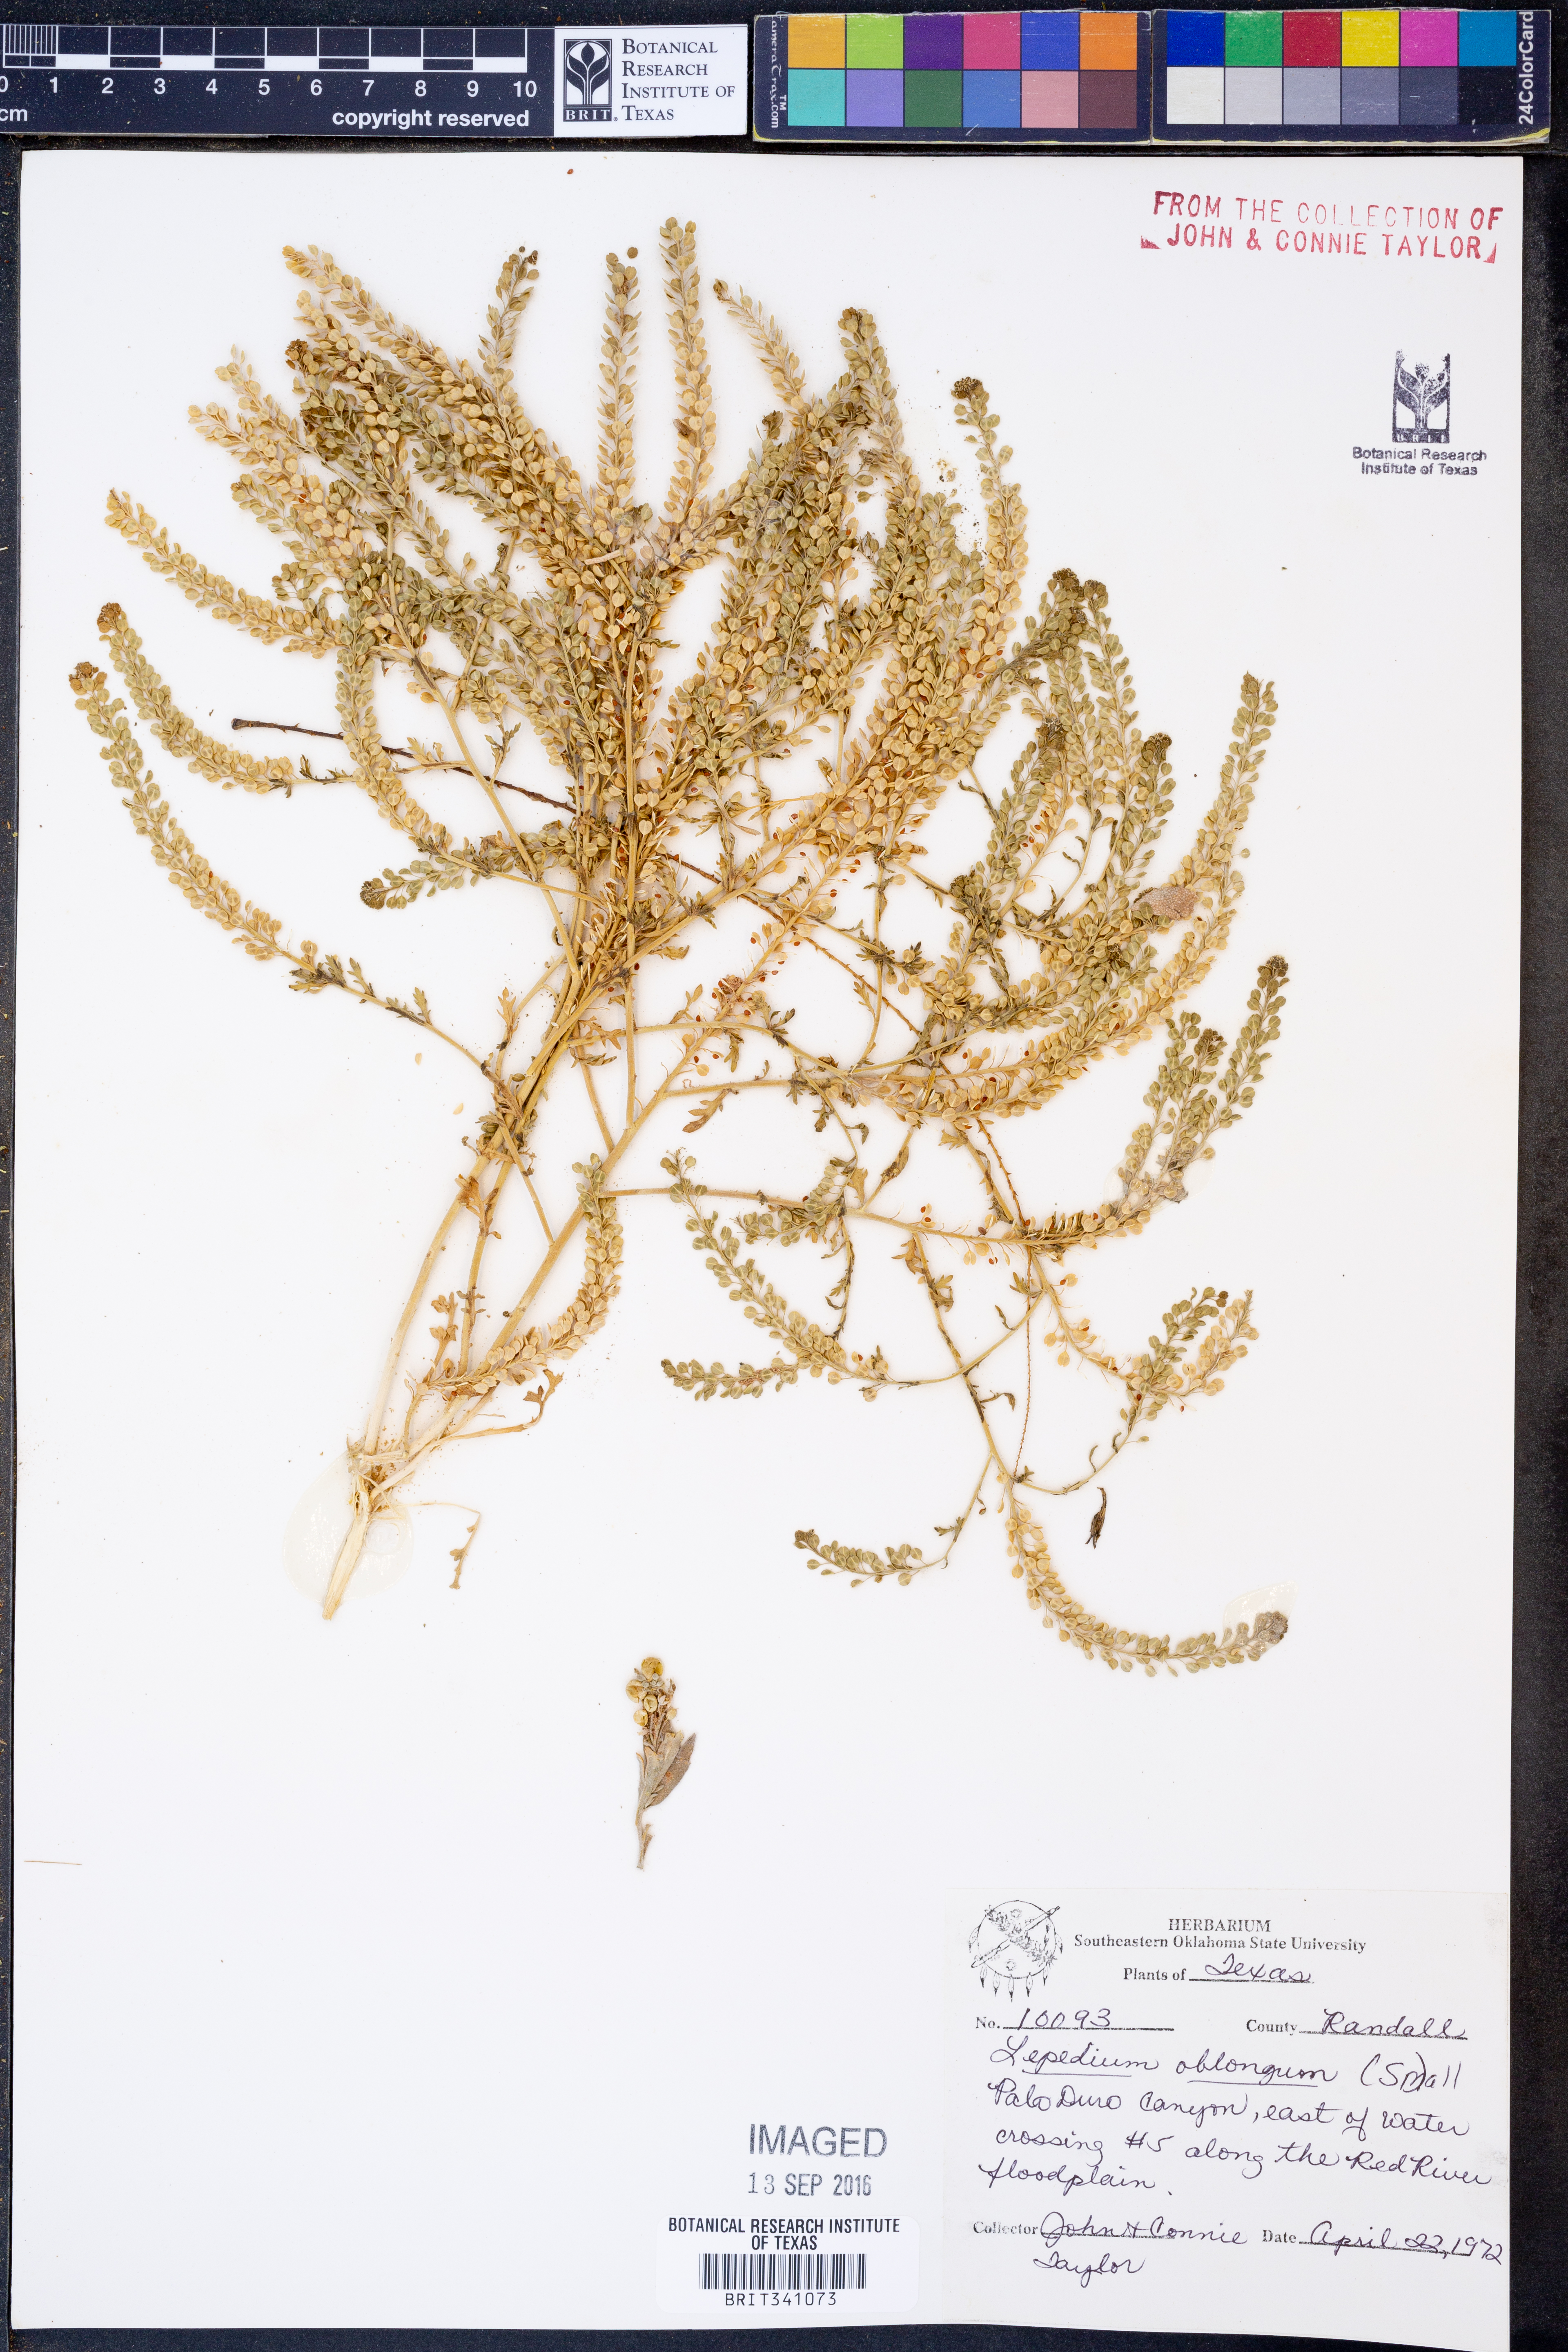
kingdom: Plantae
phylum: Tracheophyta
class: Magnoliopsida
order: Brassicales
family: Brassicaceae
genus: Lepidium
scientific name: Lepidium oblongum
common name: Veiny pepperweed
